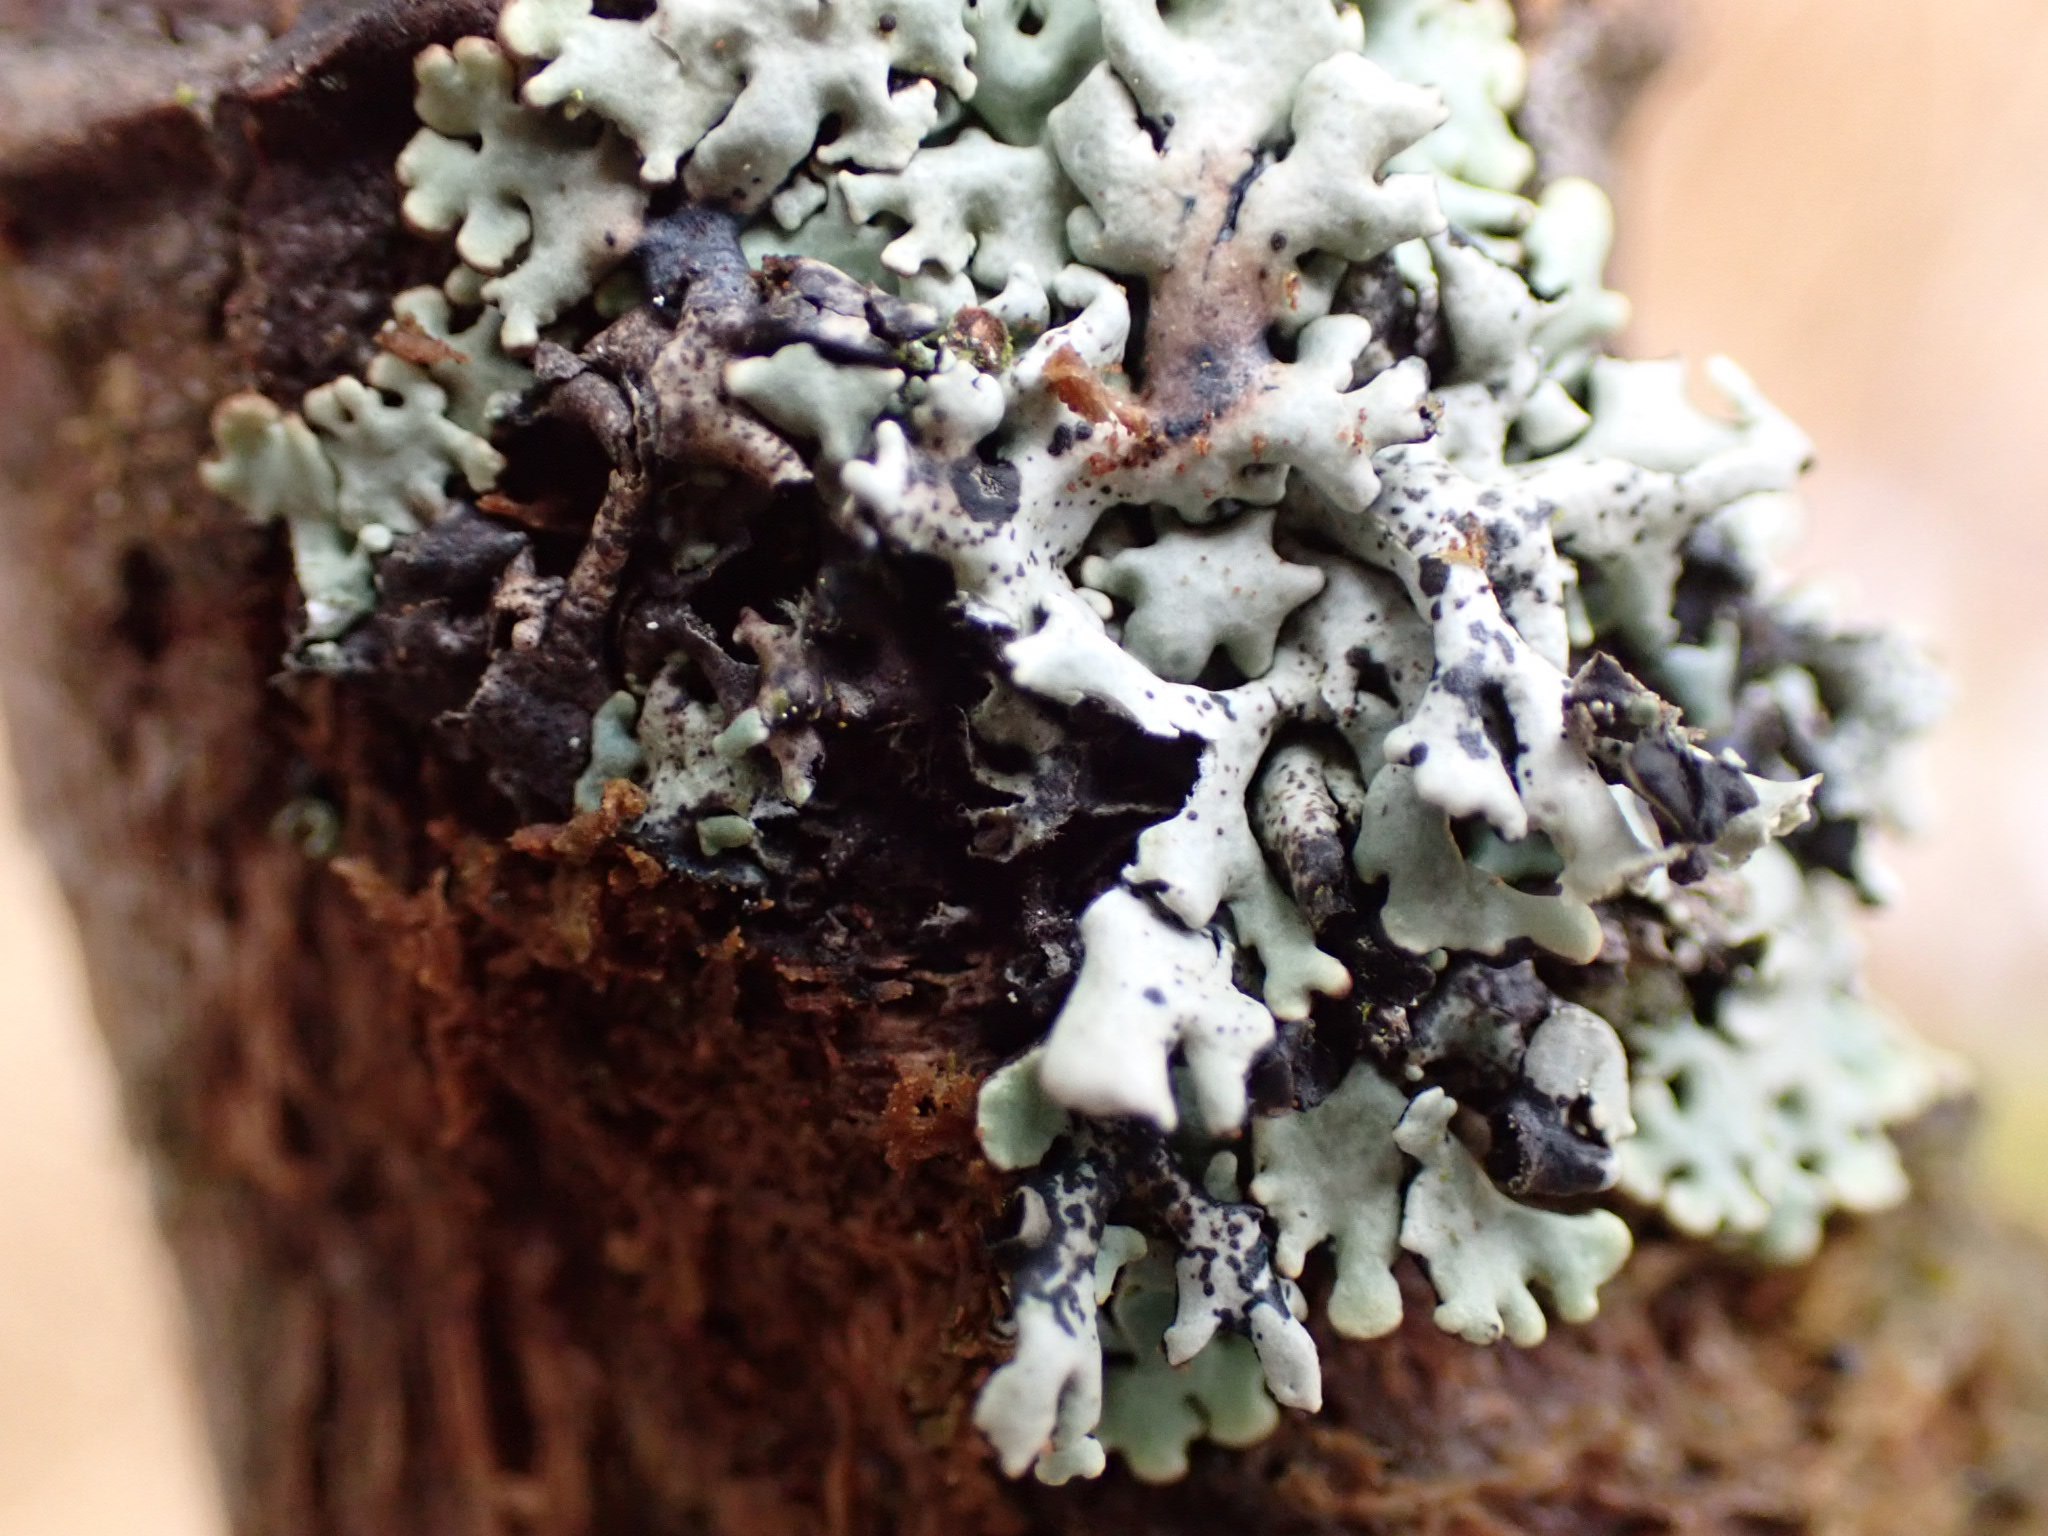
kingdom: Fungi
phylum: Ascomycota
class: Lecanoromycetes
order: Lecanorales
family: Parmeliaceae
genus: Hypogymnia
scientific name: Hypogymnia physodes
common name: almindelig kvistlav
